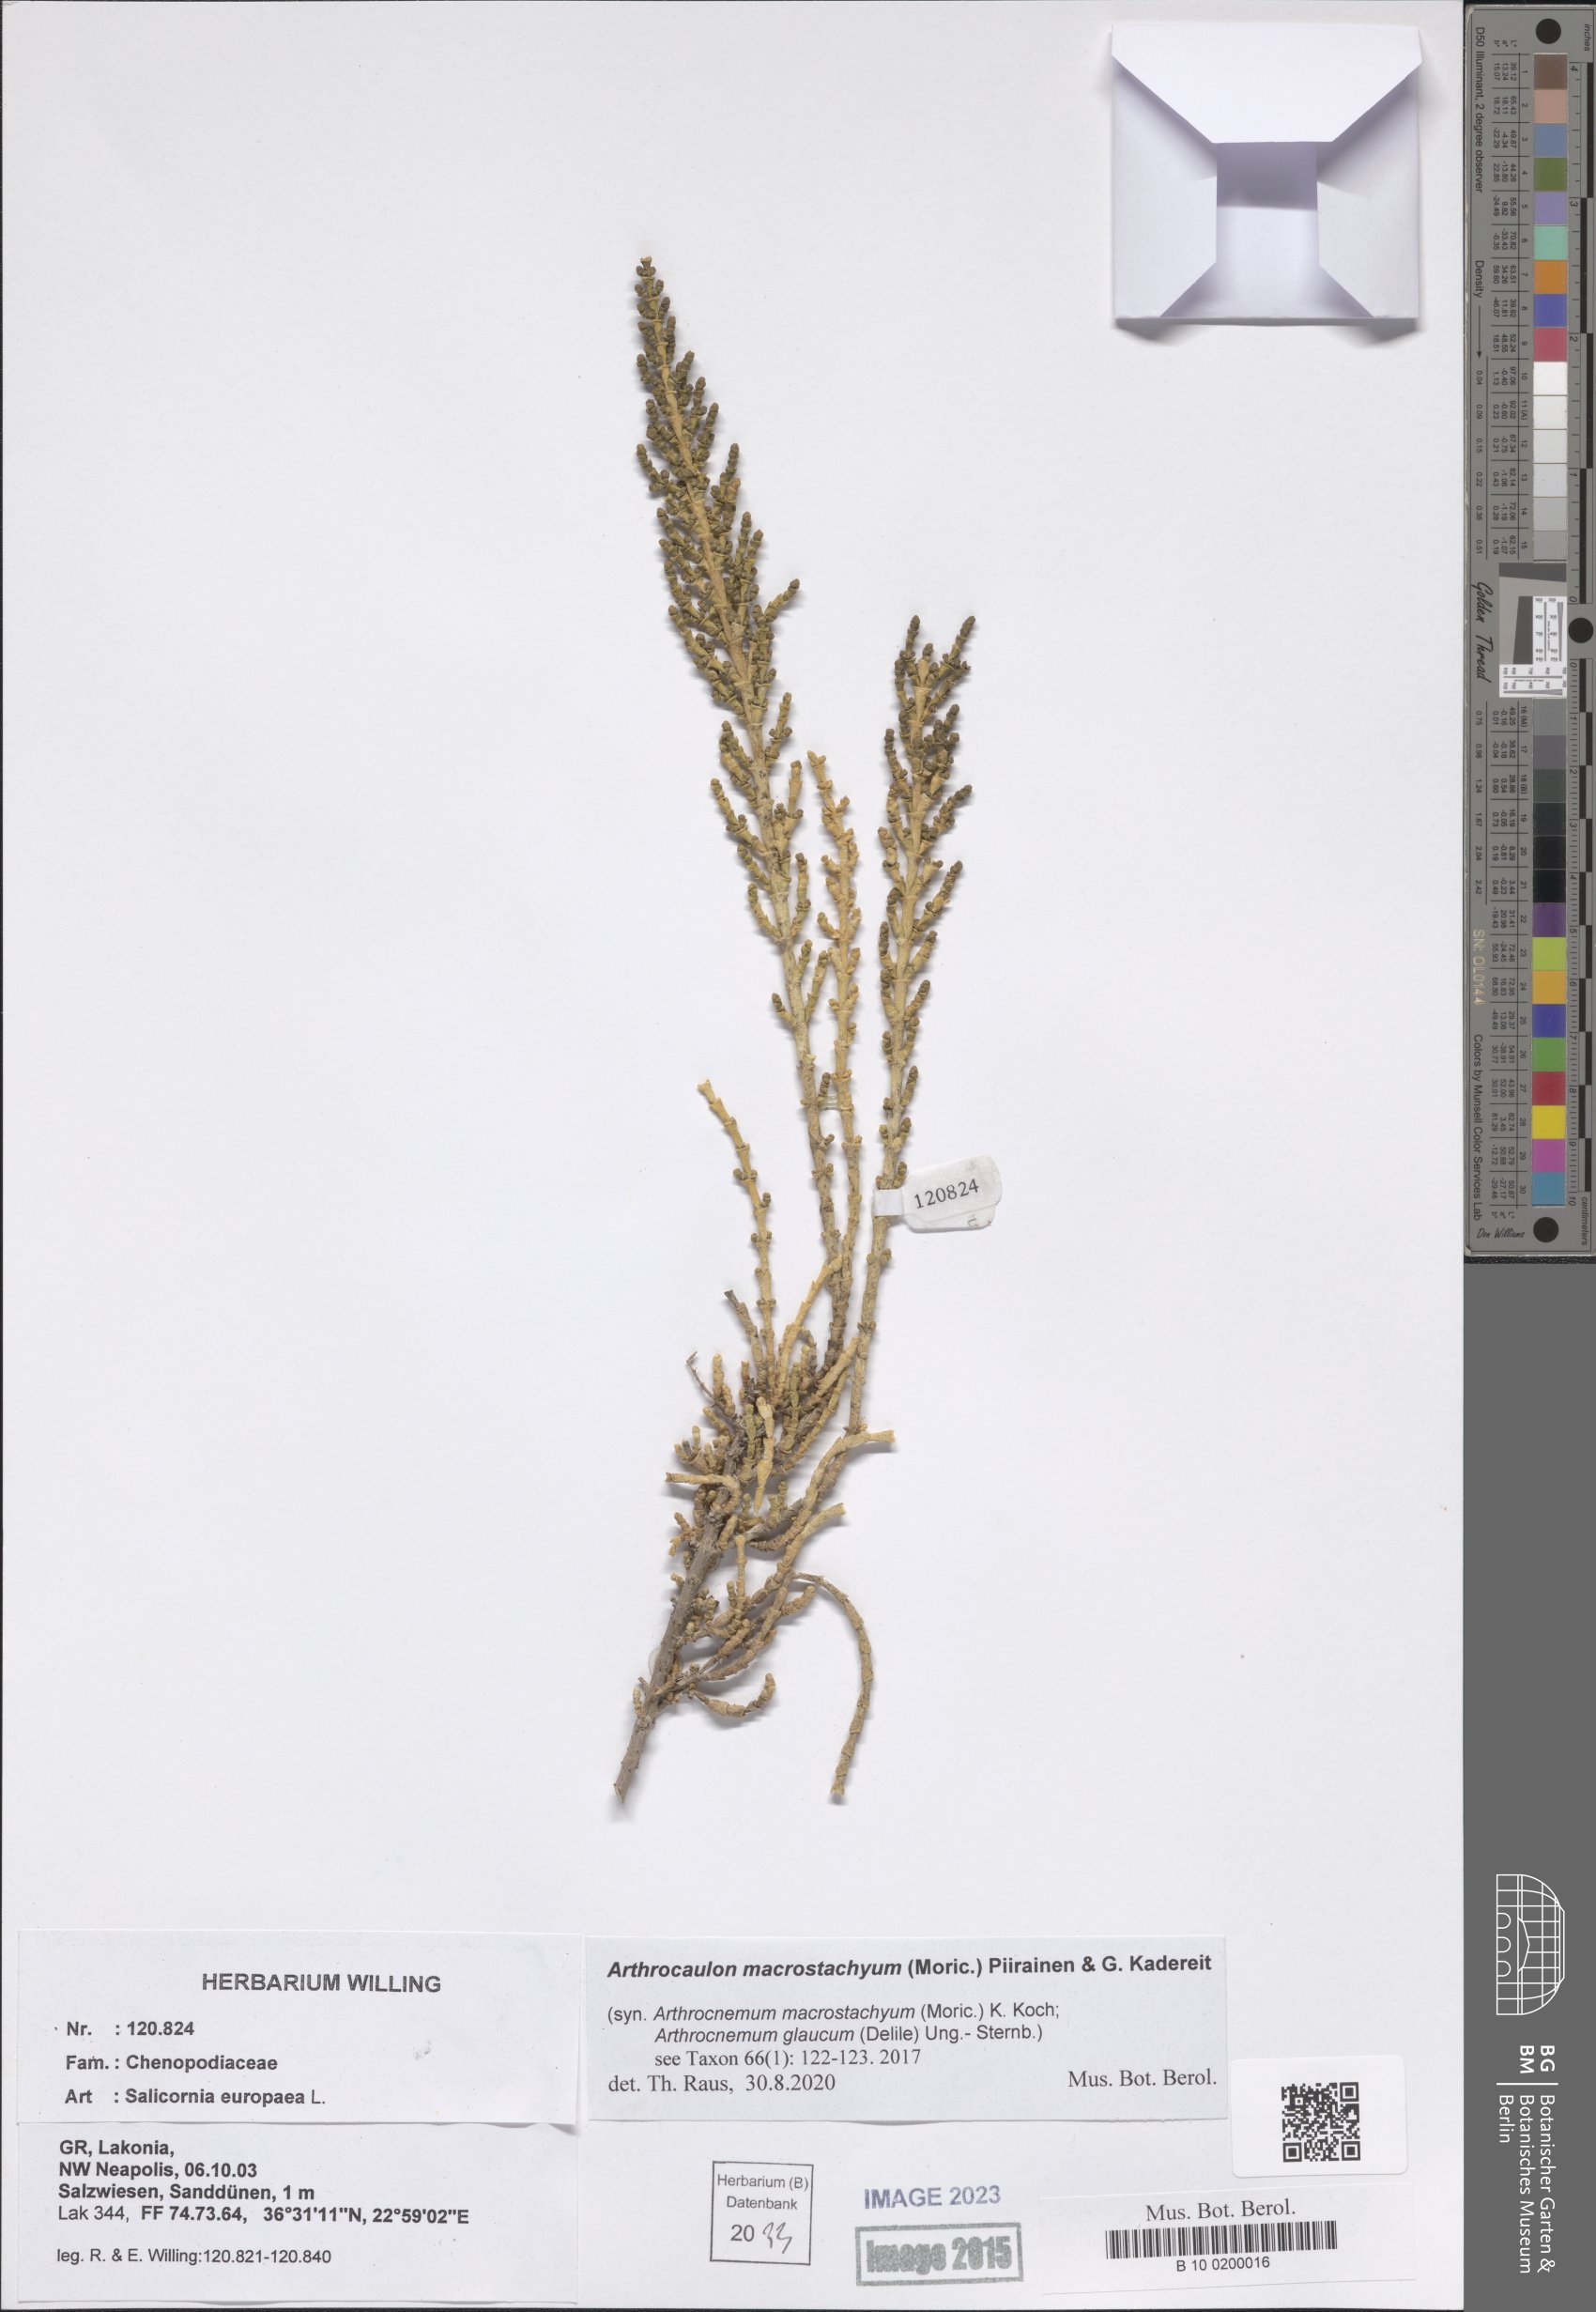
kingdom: Plantae
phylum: Tracheophyta
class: Magnoliopsida
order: Caryophyllales
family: Amaranthaceae
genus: Arthrocaulon
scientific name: Arthrocaulon macrostachyum
